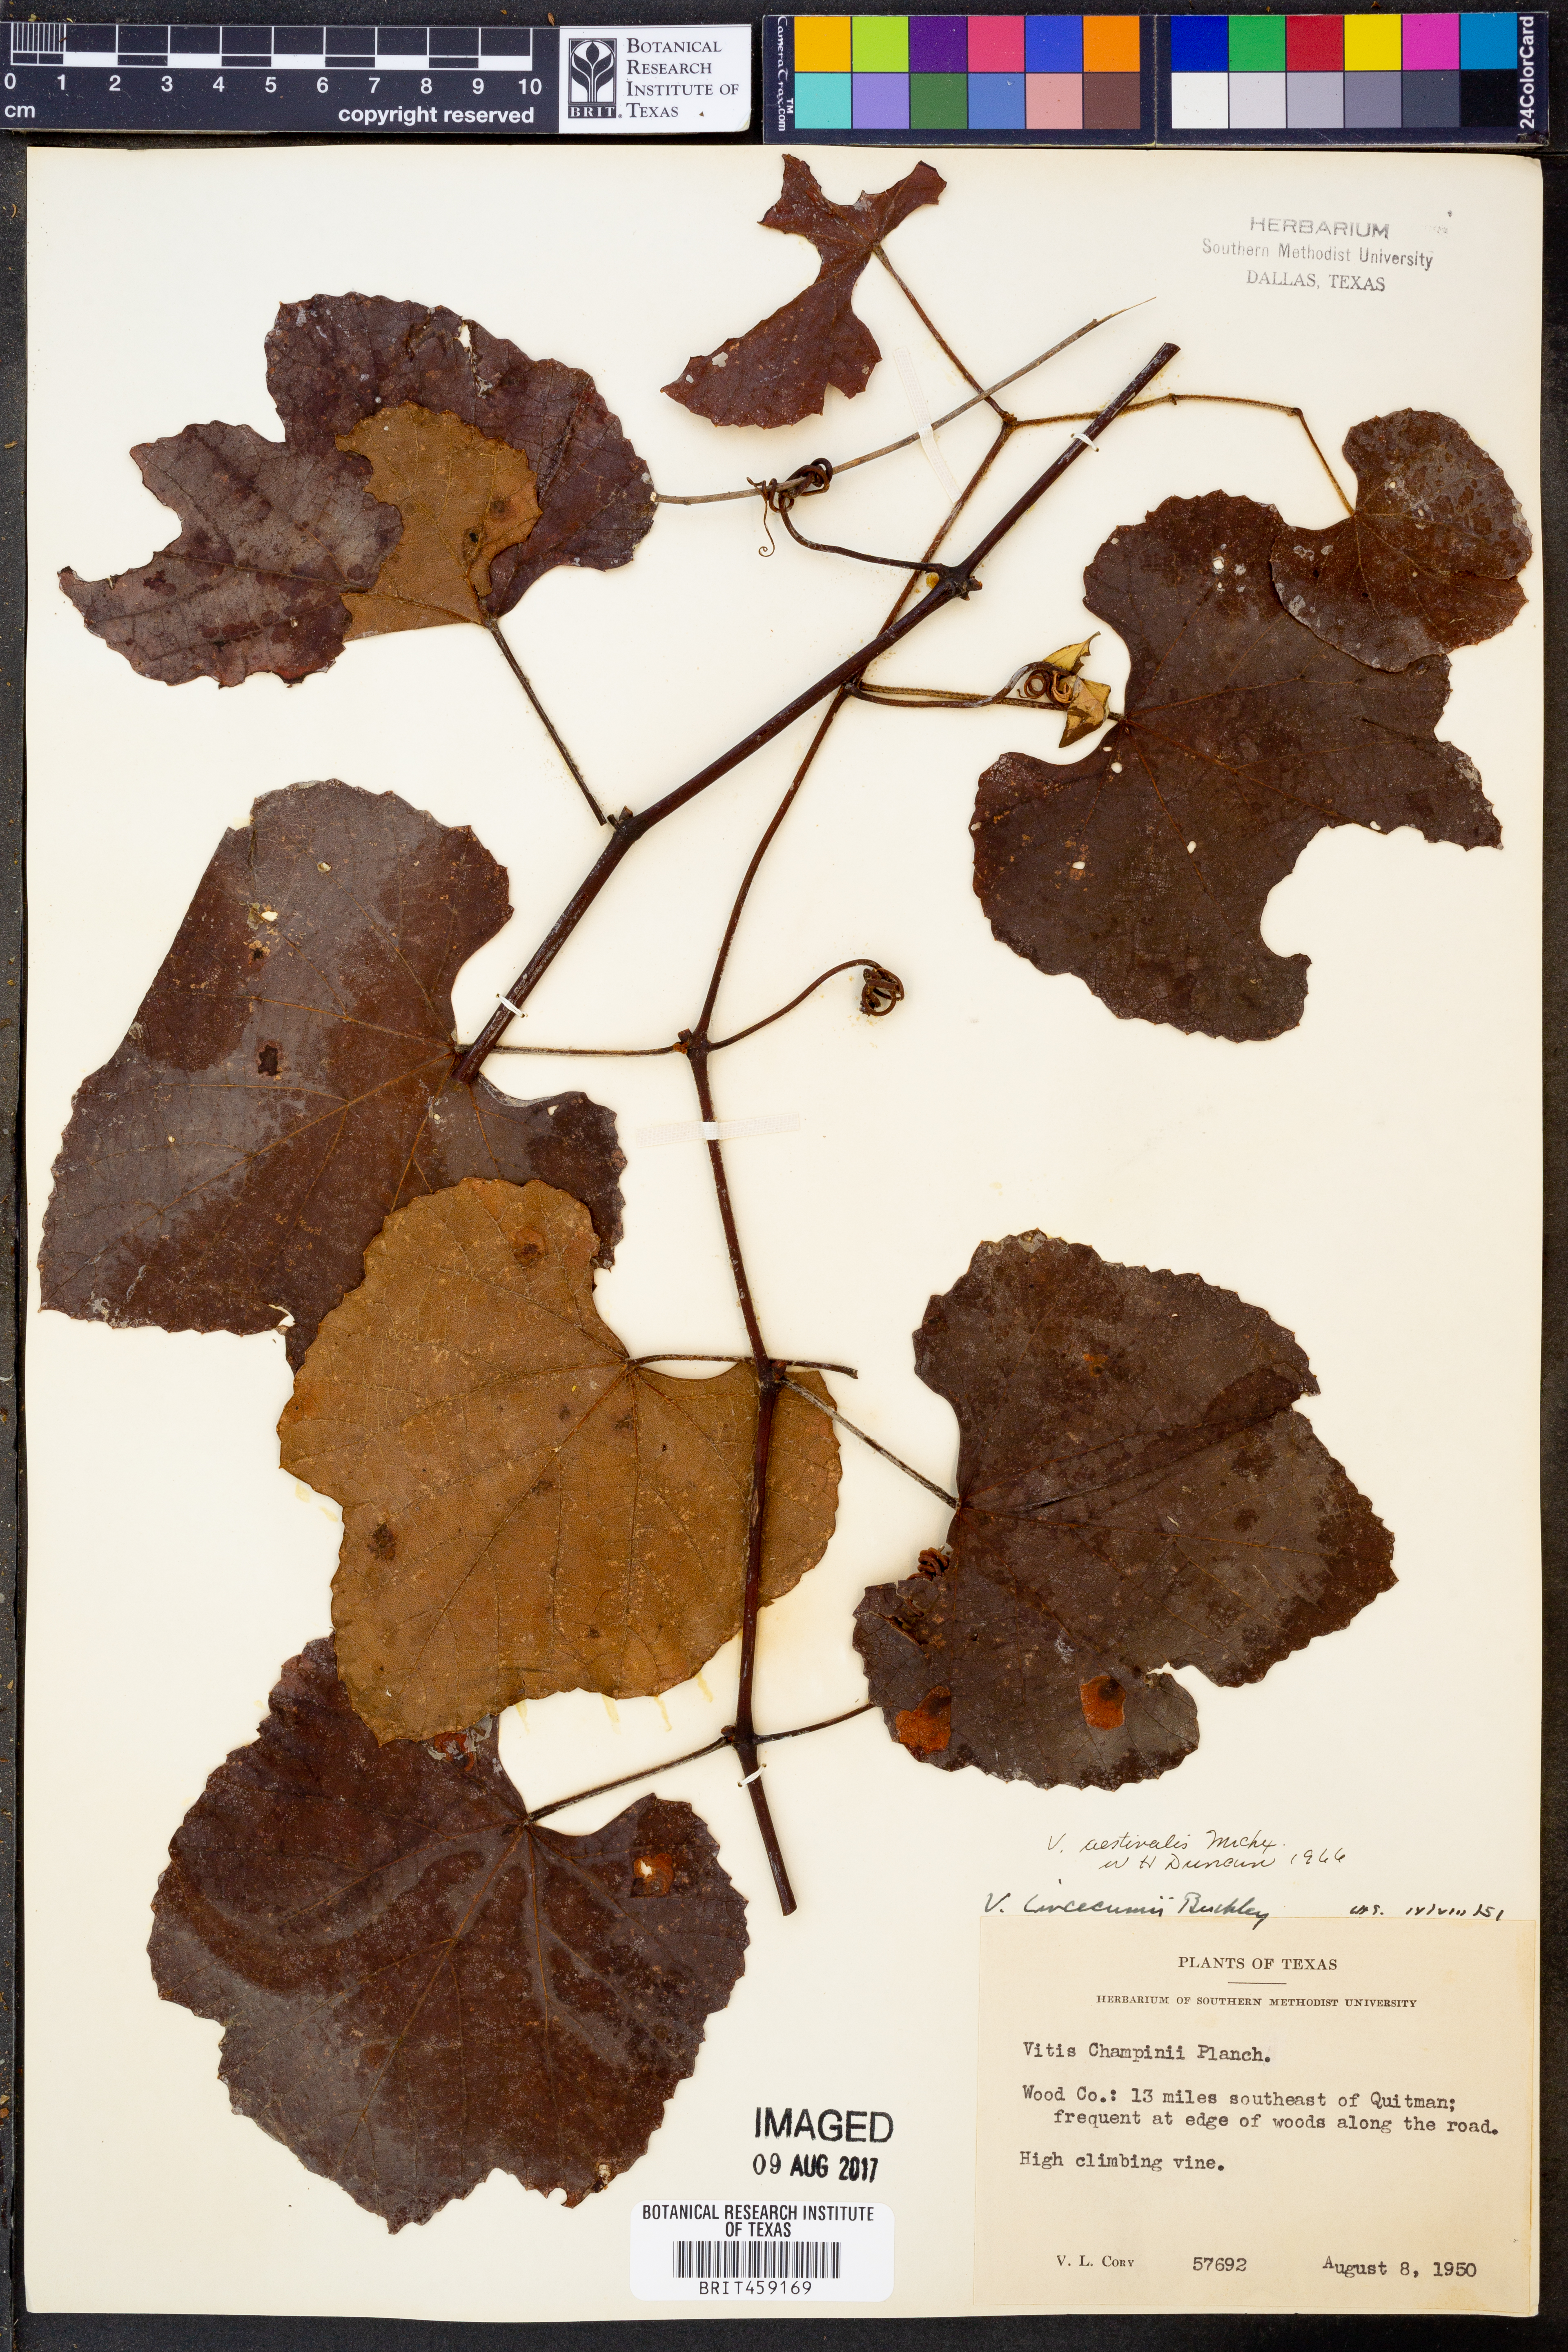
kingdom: Plantae
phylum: Tracheophyta
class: Magnoliopsida
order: Vitales
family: Vitaceae
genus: Vitis
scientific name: Vitis aestivalis
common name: Pigeon grape
